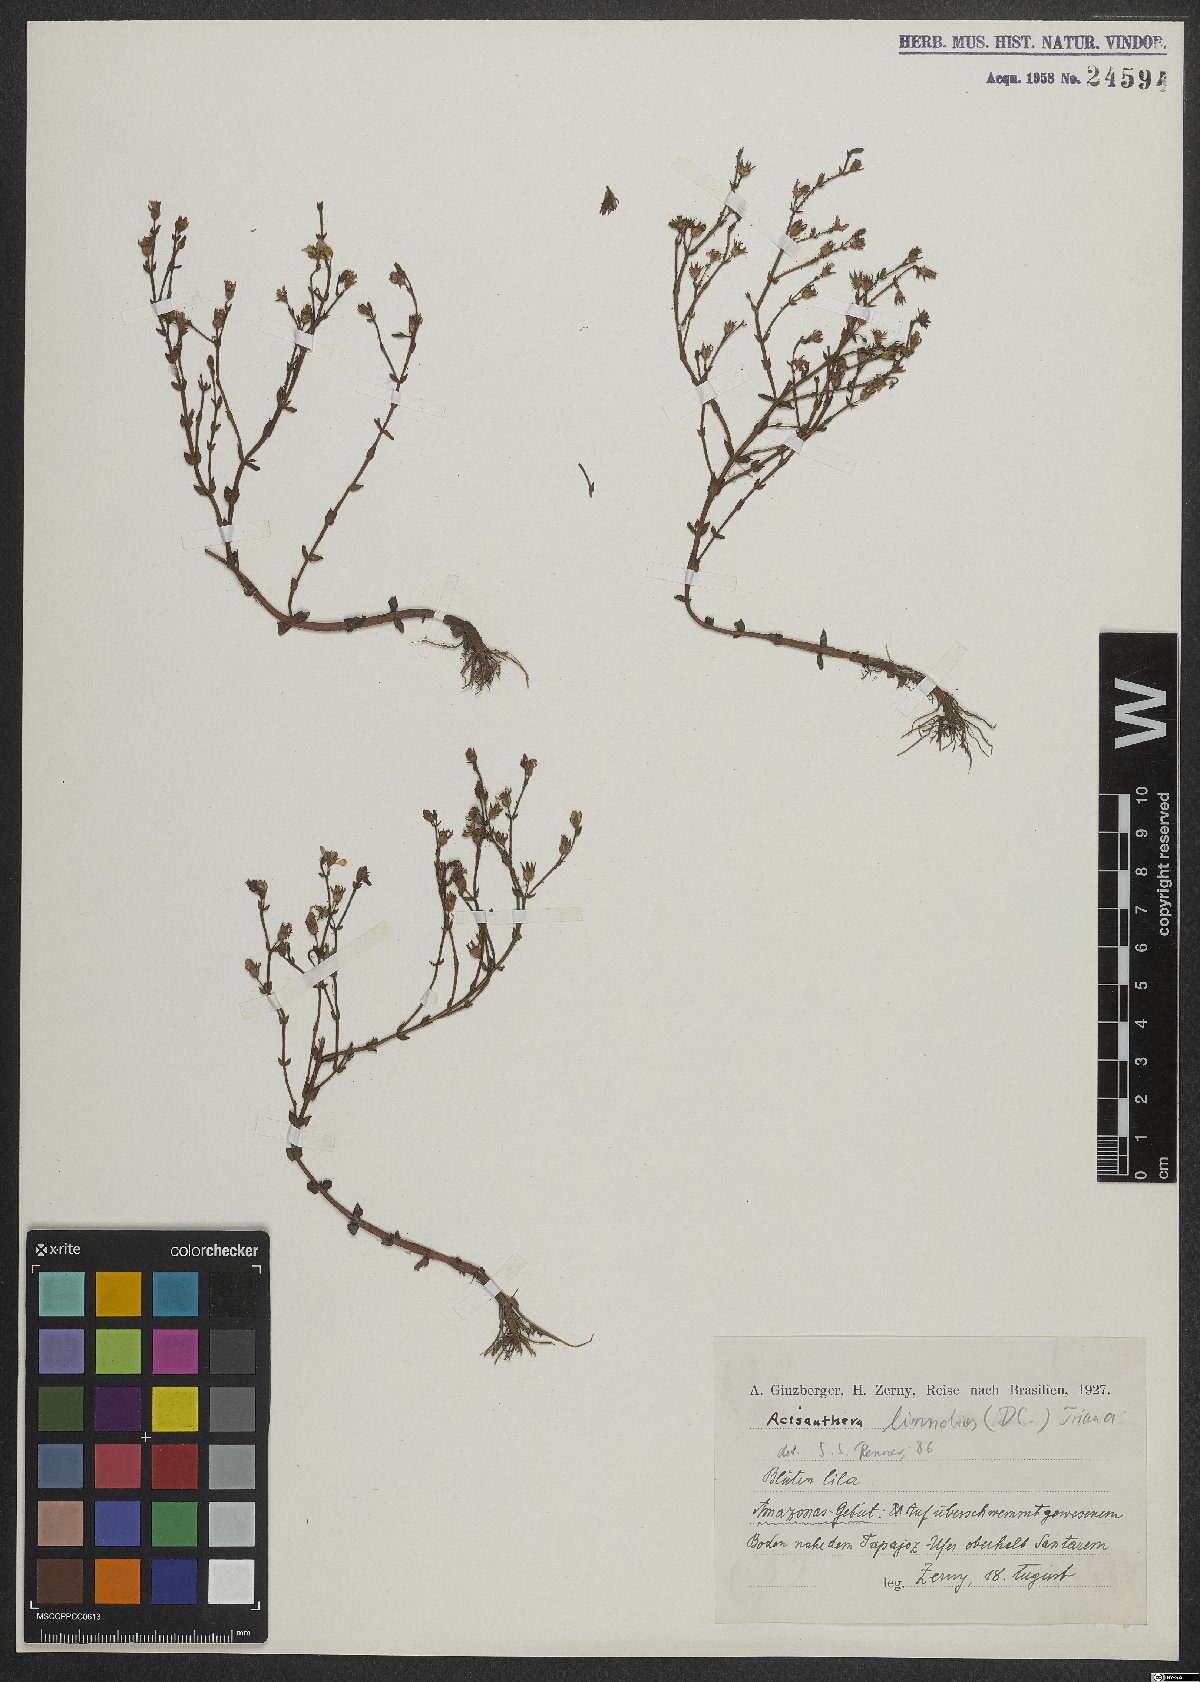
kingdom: Plantae
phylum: Tracheophyta
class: Magnoliopsida
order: Myrtales
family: Melastomataceae
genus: Noterophila
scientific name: Noterophila limnobios
